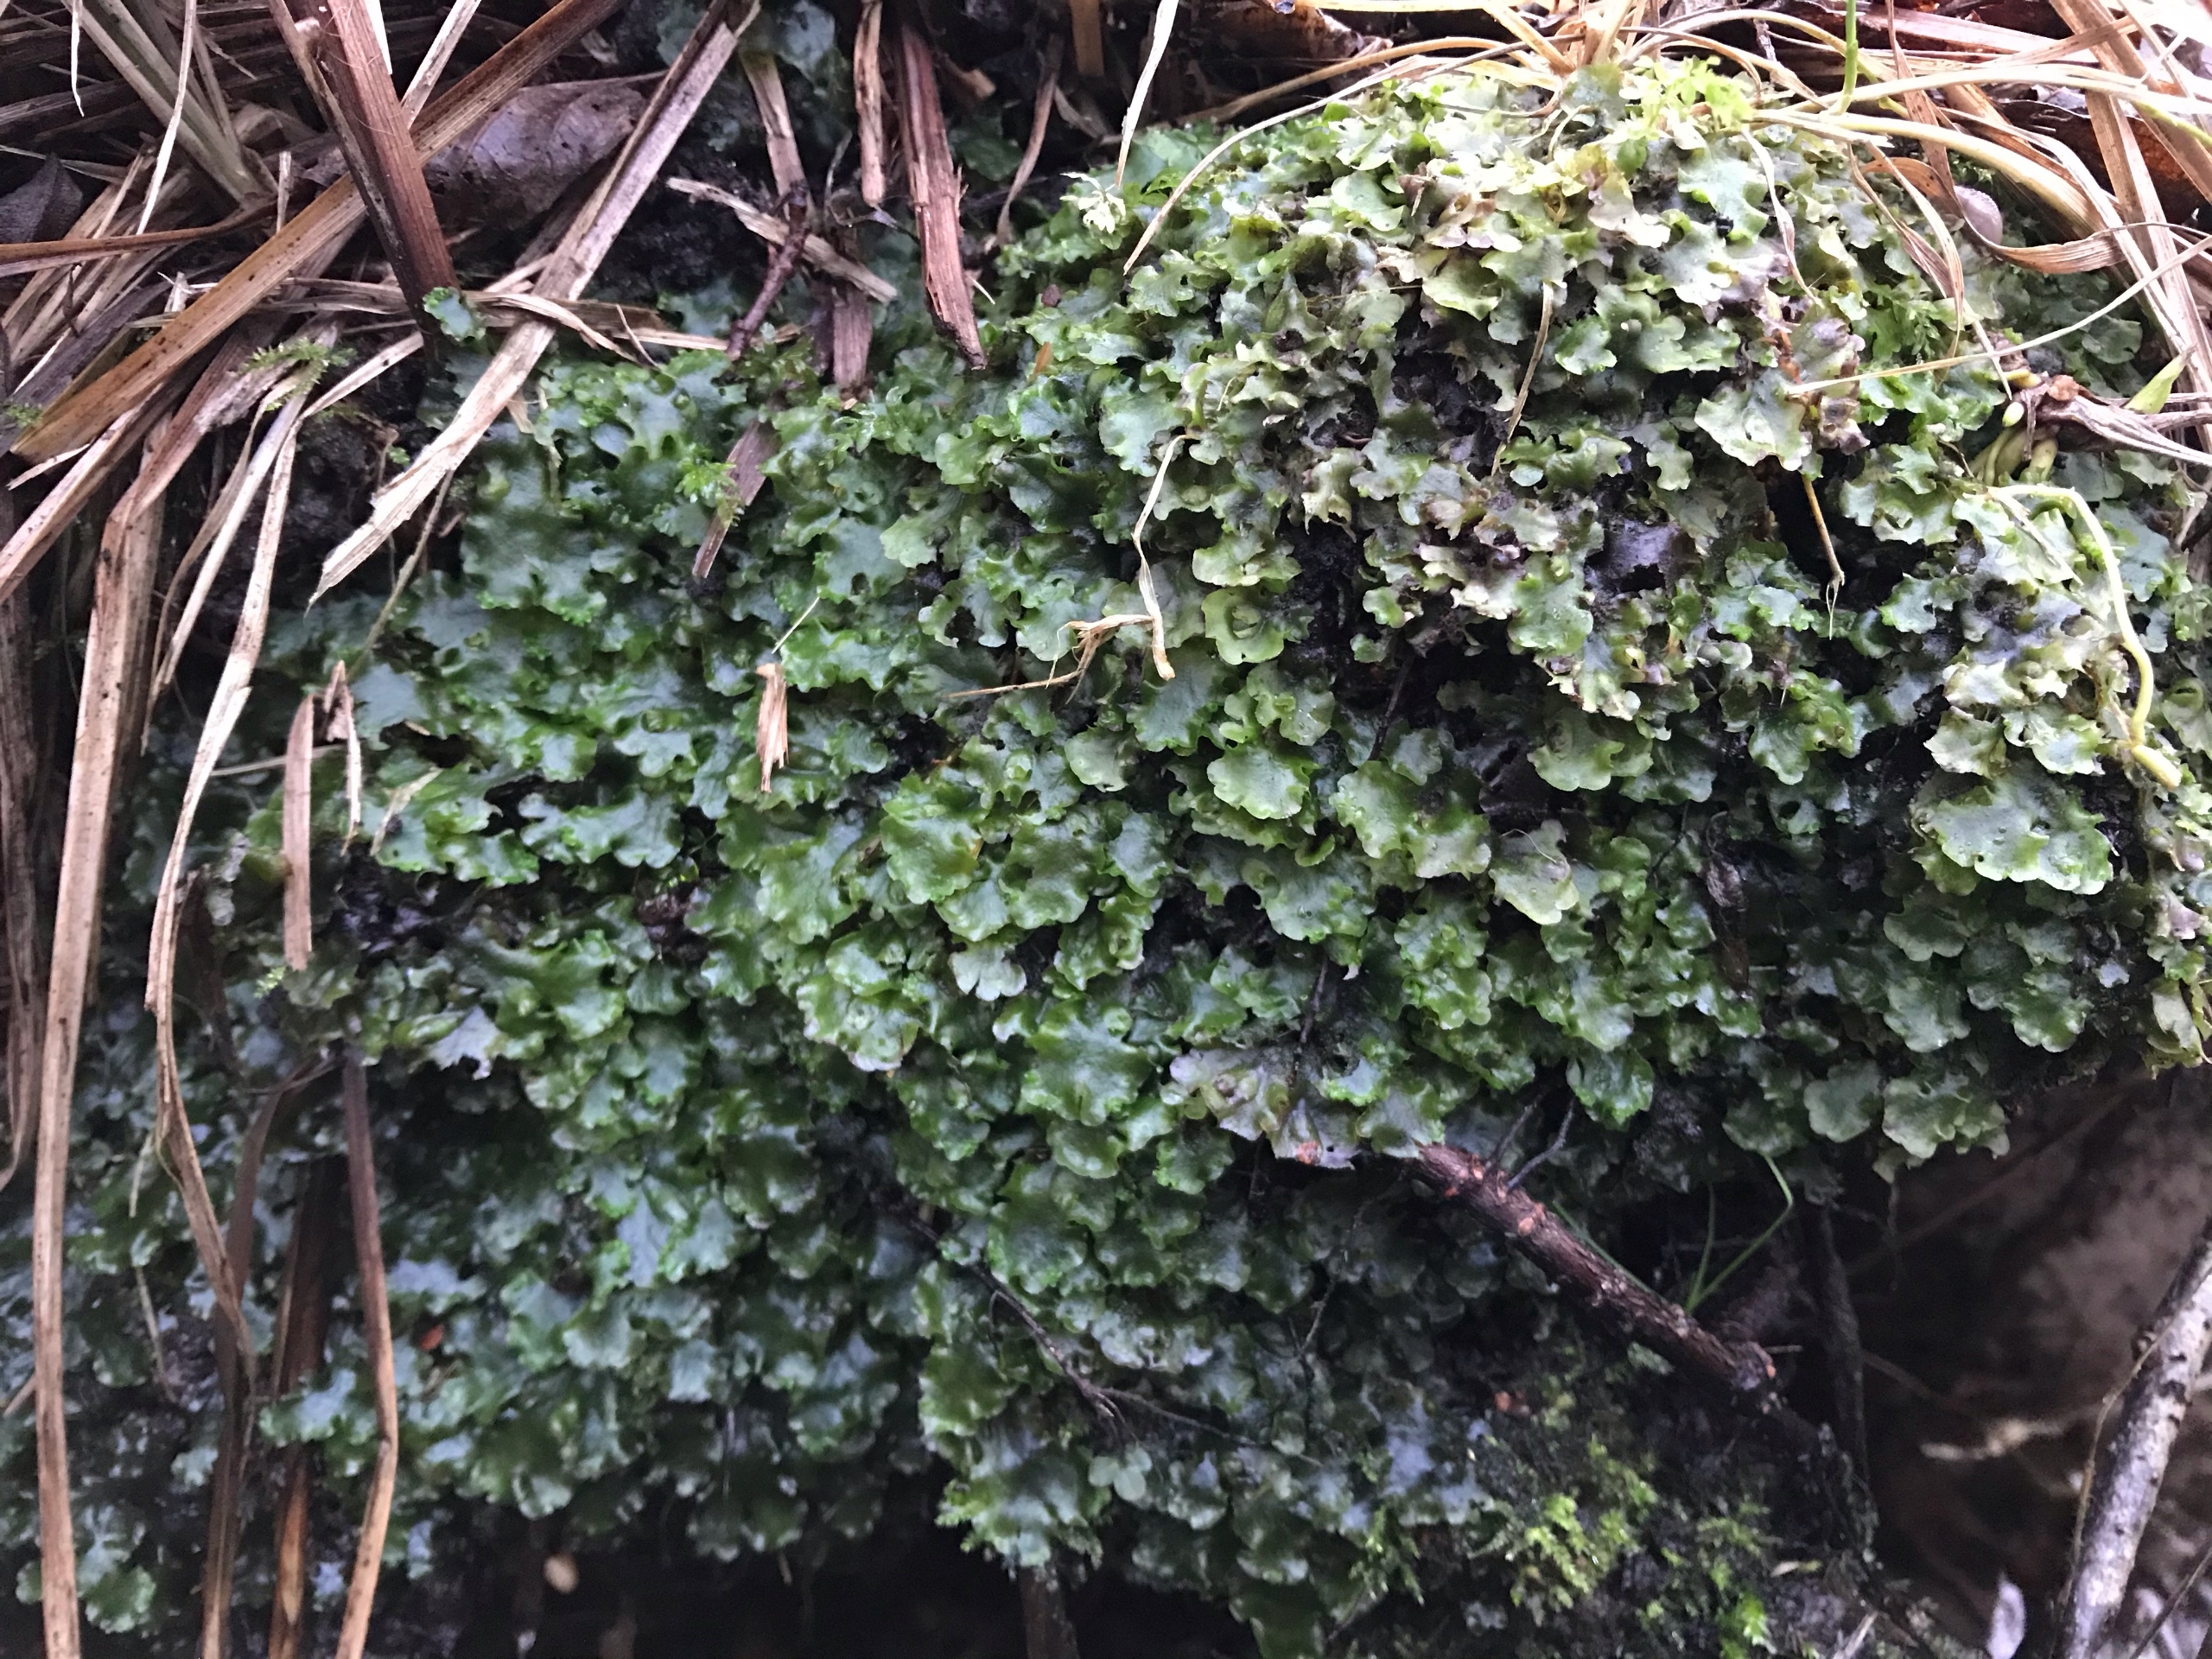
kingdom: Plantae
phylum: Marchantiophyta
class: Jungermanniopsida
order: Pelliales
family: Pelliaceae
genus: Pellia
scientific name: Pellia epiphylla
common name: Enbo ribbeløv
